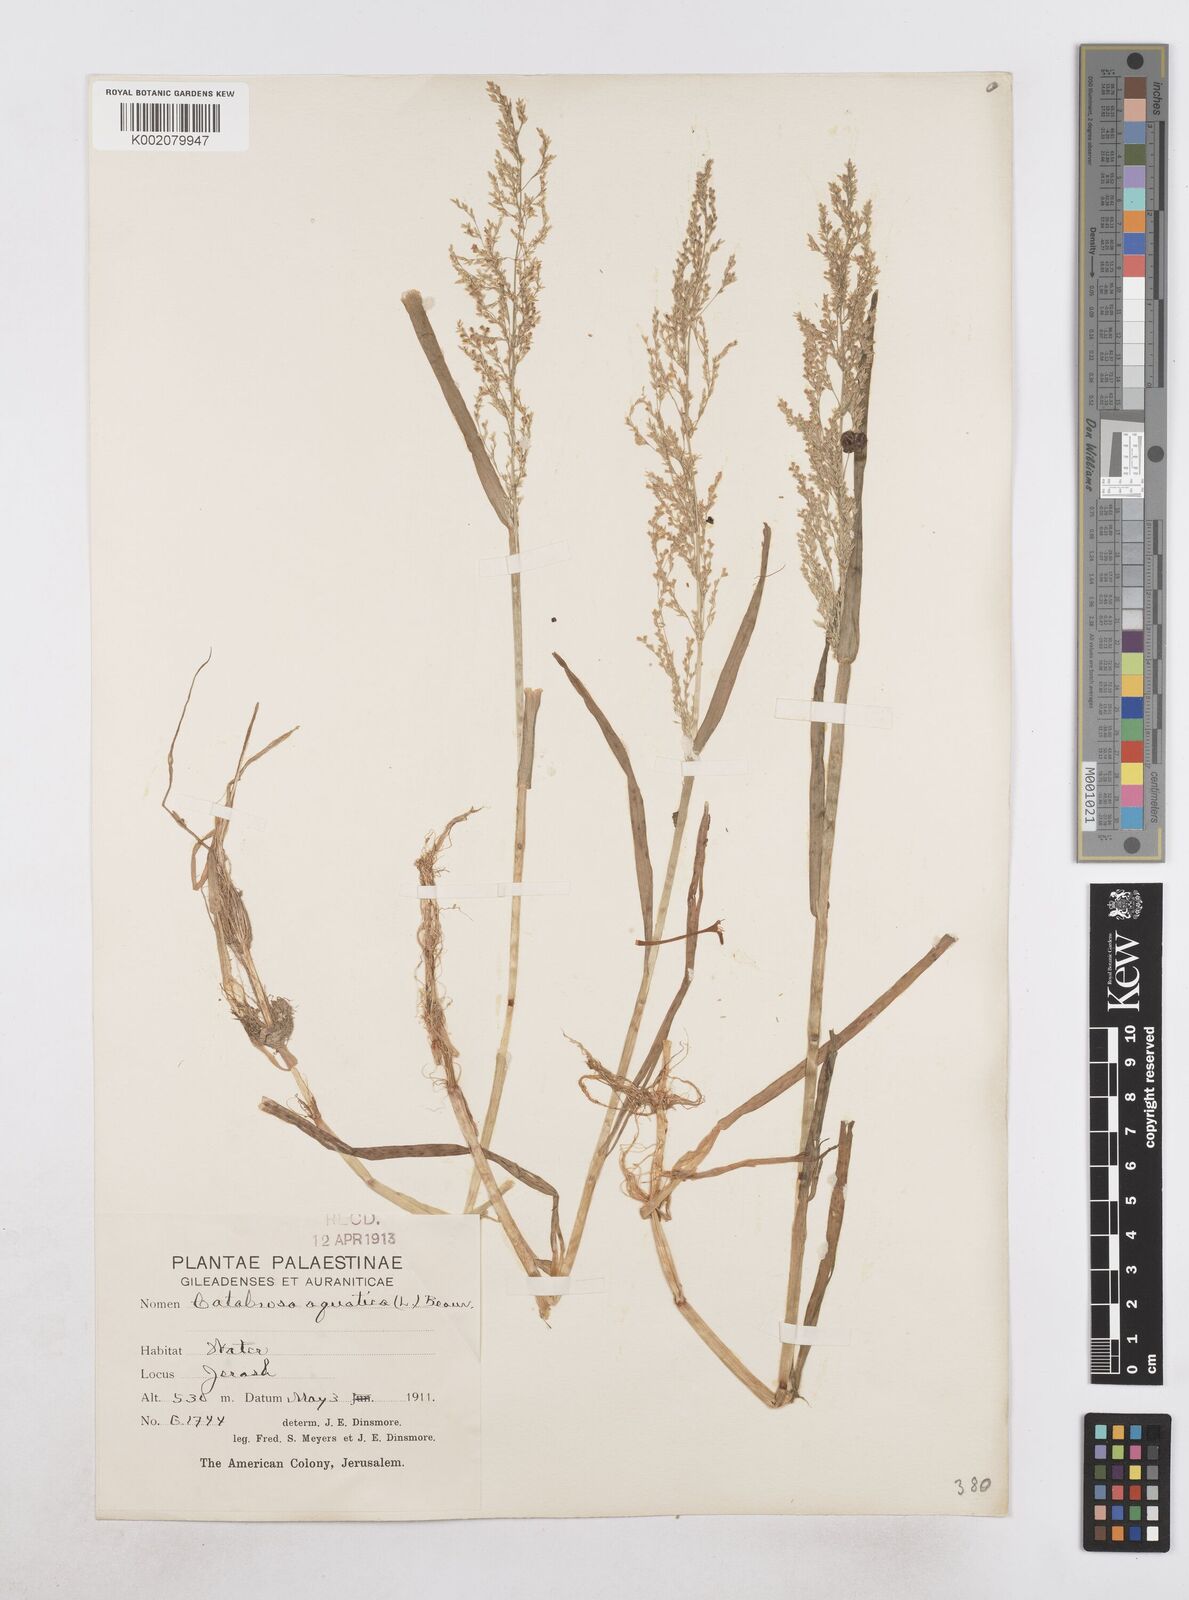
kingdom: Plantae
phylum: Tracheophyta
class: Liliopsida
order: Poales
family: Poaceae
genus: Catabrosa
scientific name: Catabrosa aquatica
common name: Whorl-grass
